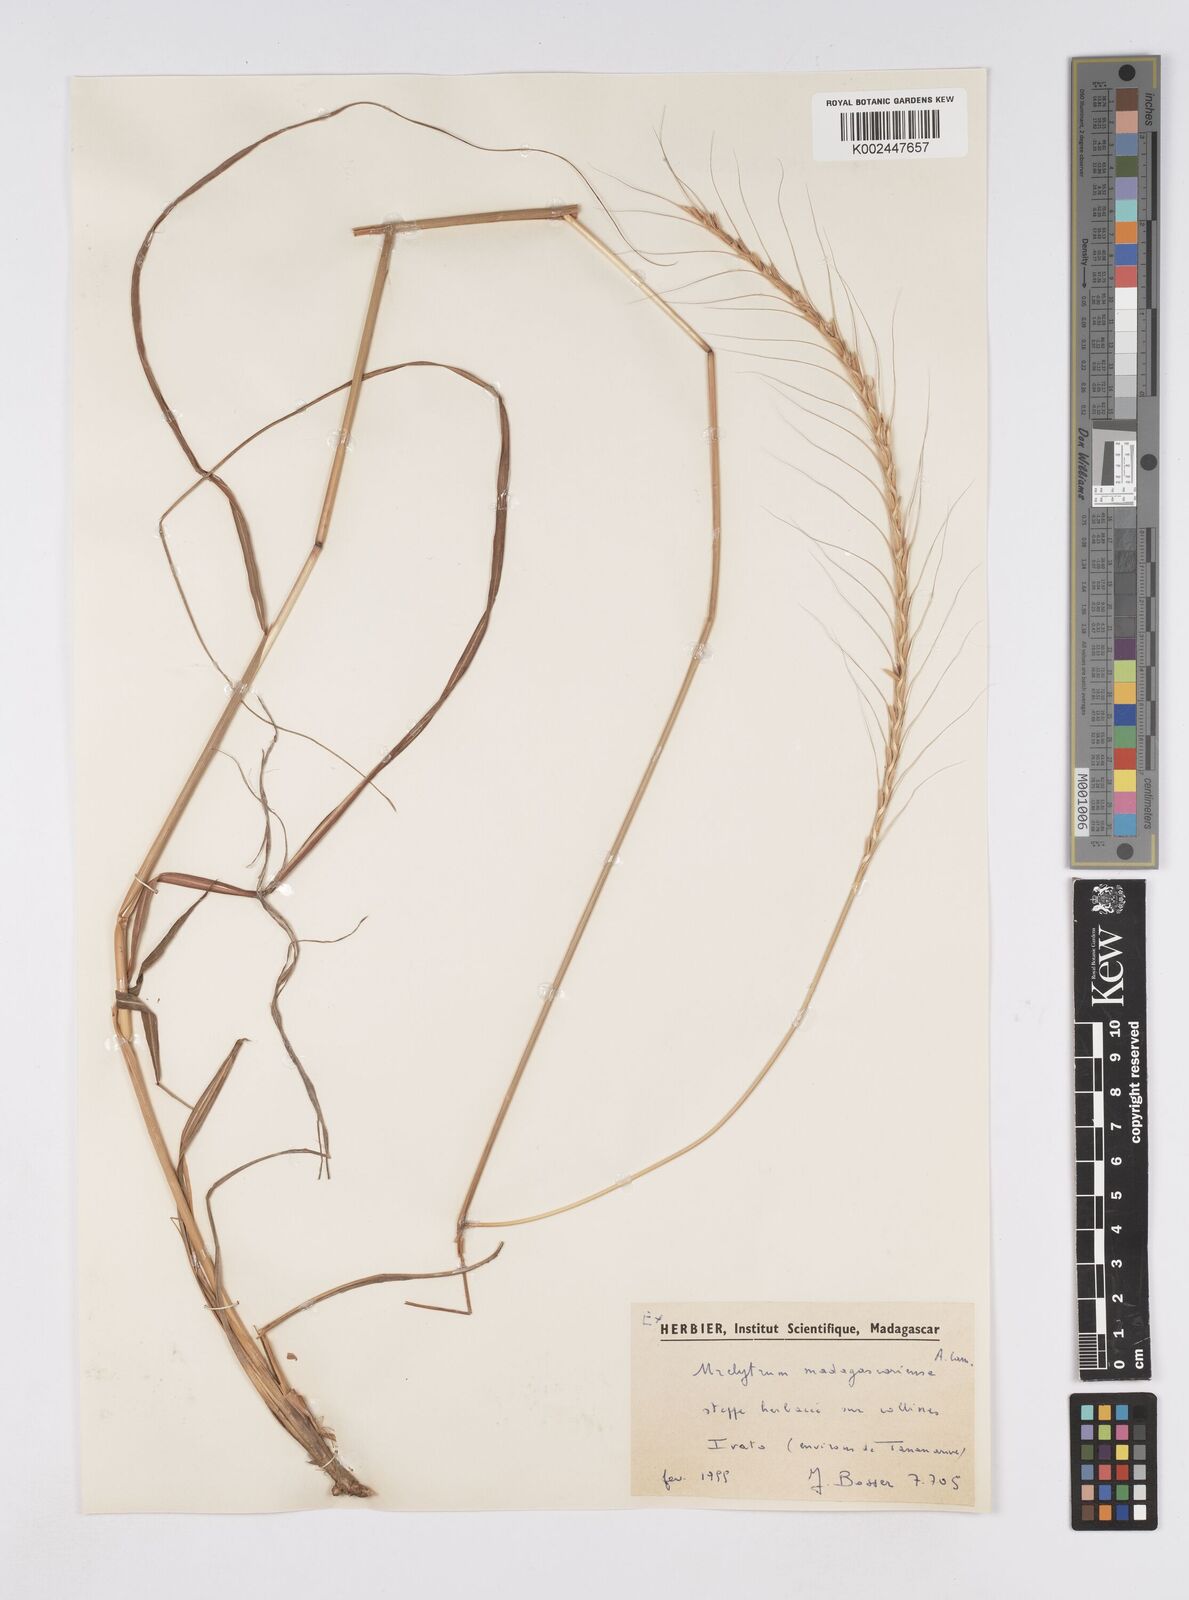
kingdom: Plantae
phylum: Tracheophyta
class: Liliopsida
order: Poales
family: Poaceae
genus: Urelytrum
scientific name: Urelytrum agropyroides
